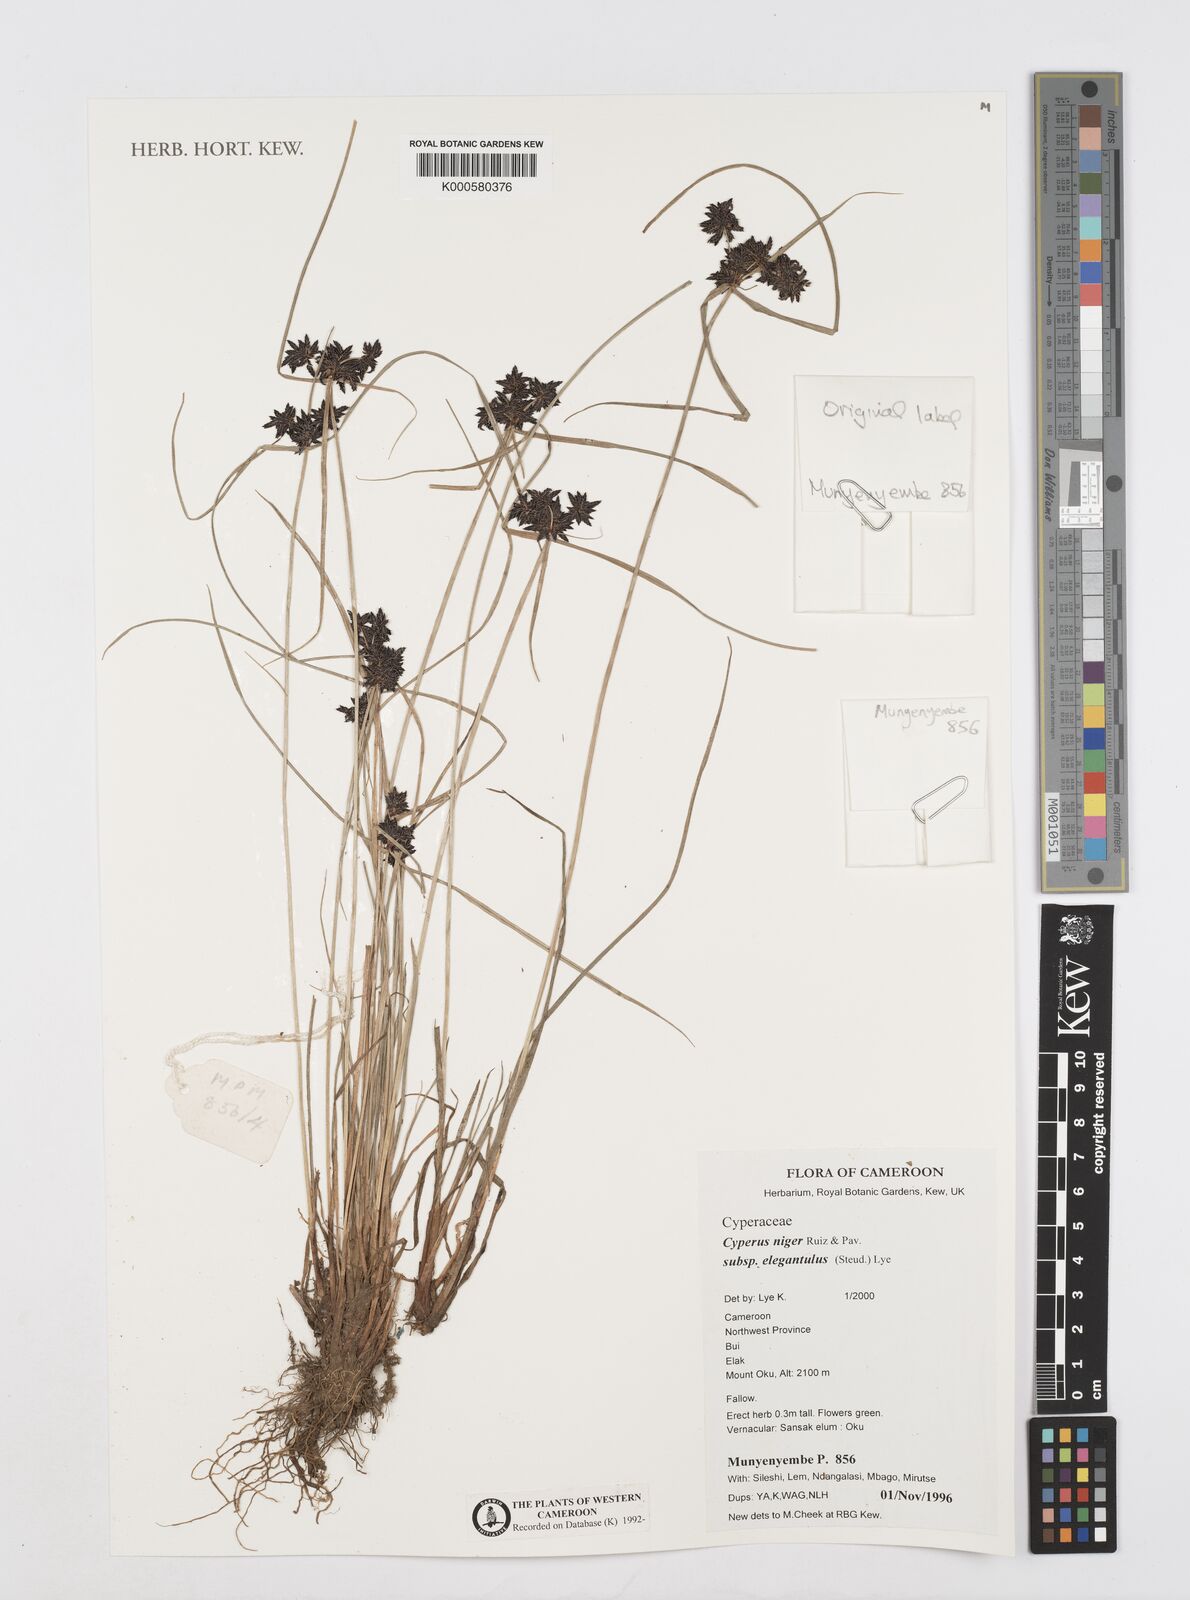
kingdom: Plantae
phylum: Tracheophyta
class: Liliopsida
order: Poales
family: Cyperaceae
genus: Cyperus
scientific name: Cyperus elegantulus
